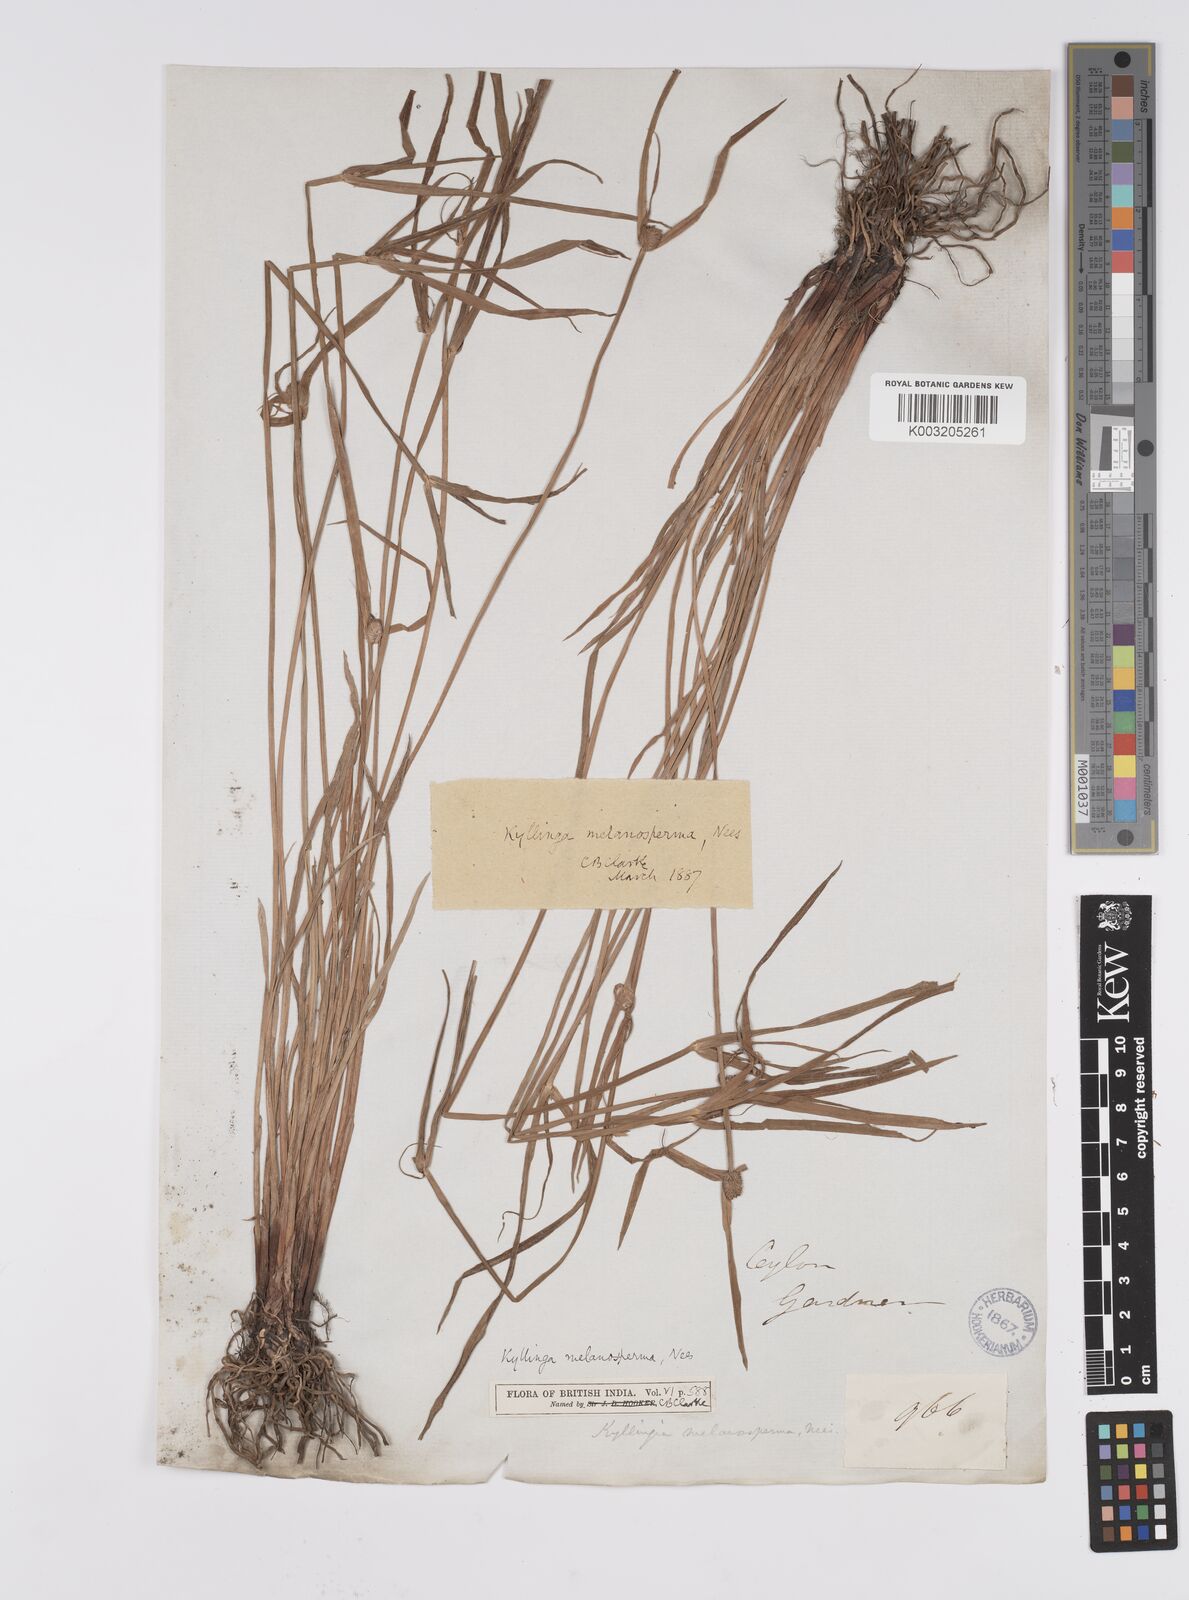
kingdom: Plantae
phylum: Tracheophyta
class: Liliopsida
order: Poales
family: Cyperaceae
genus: Cyperus
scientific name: Cyperus melanospermus
